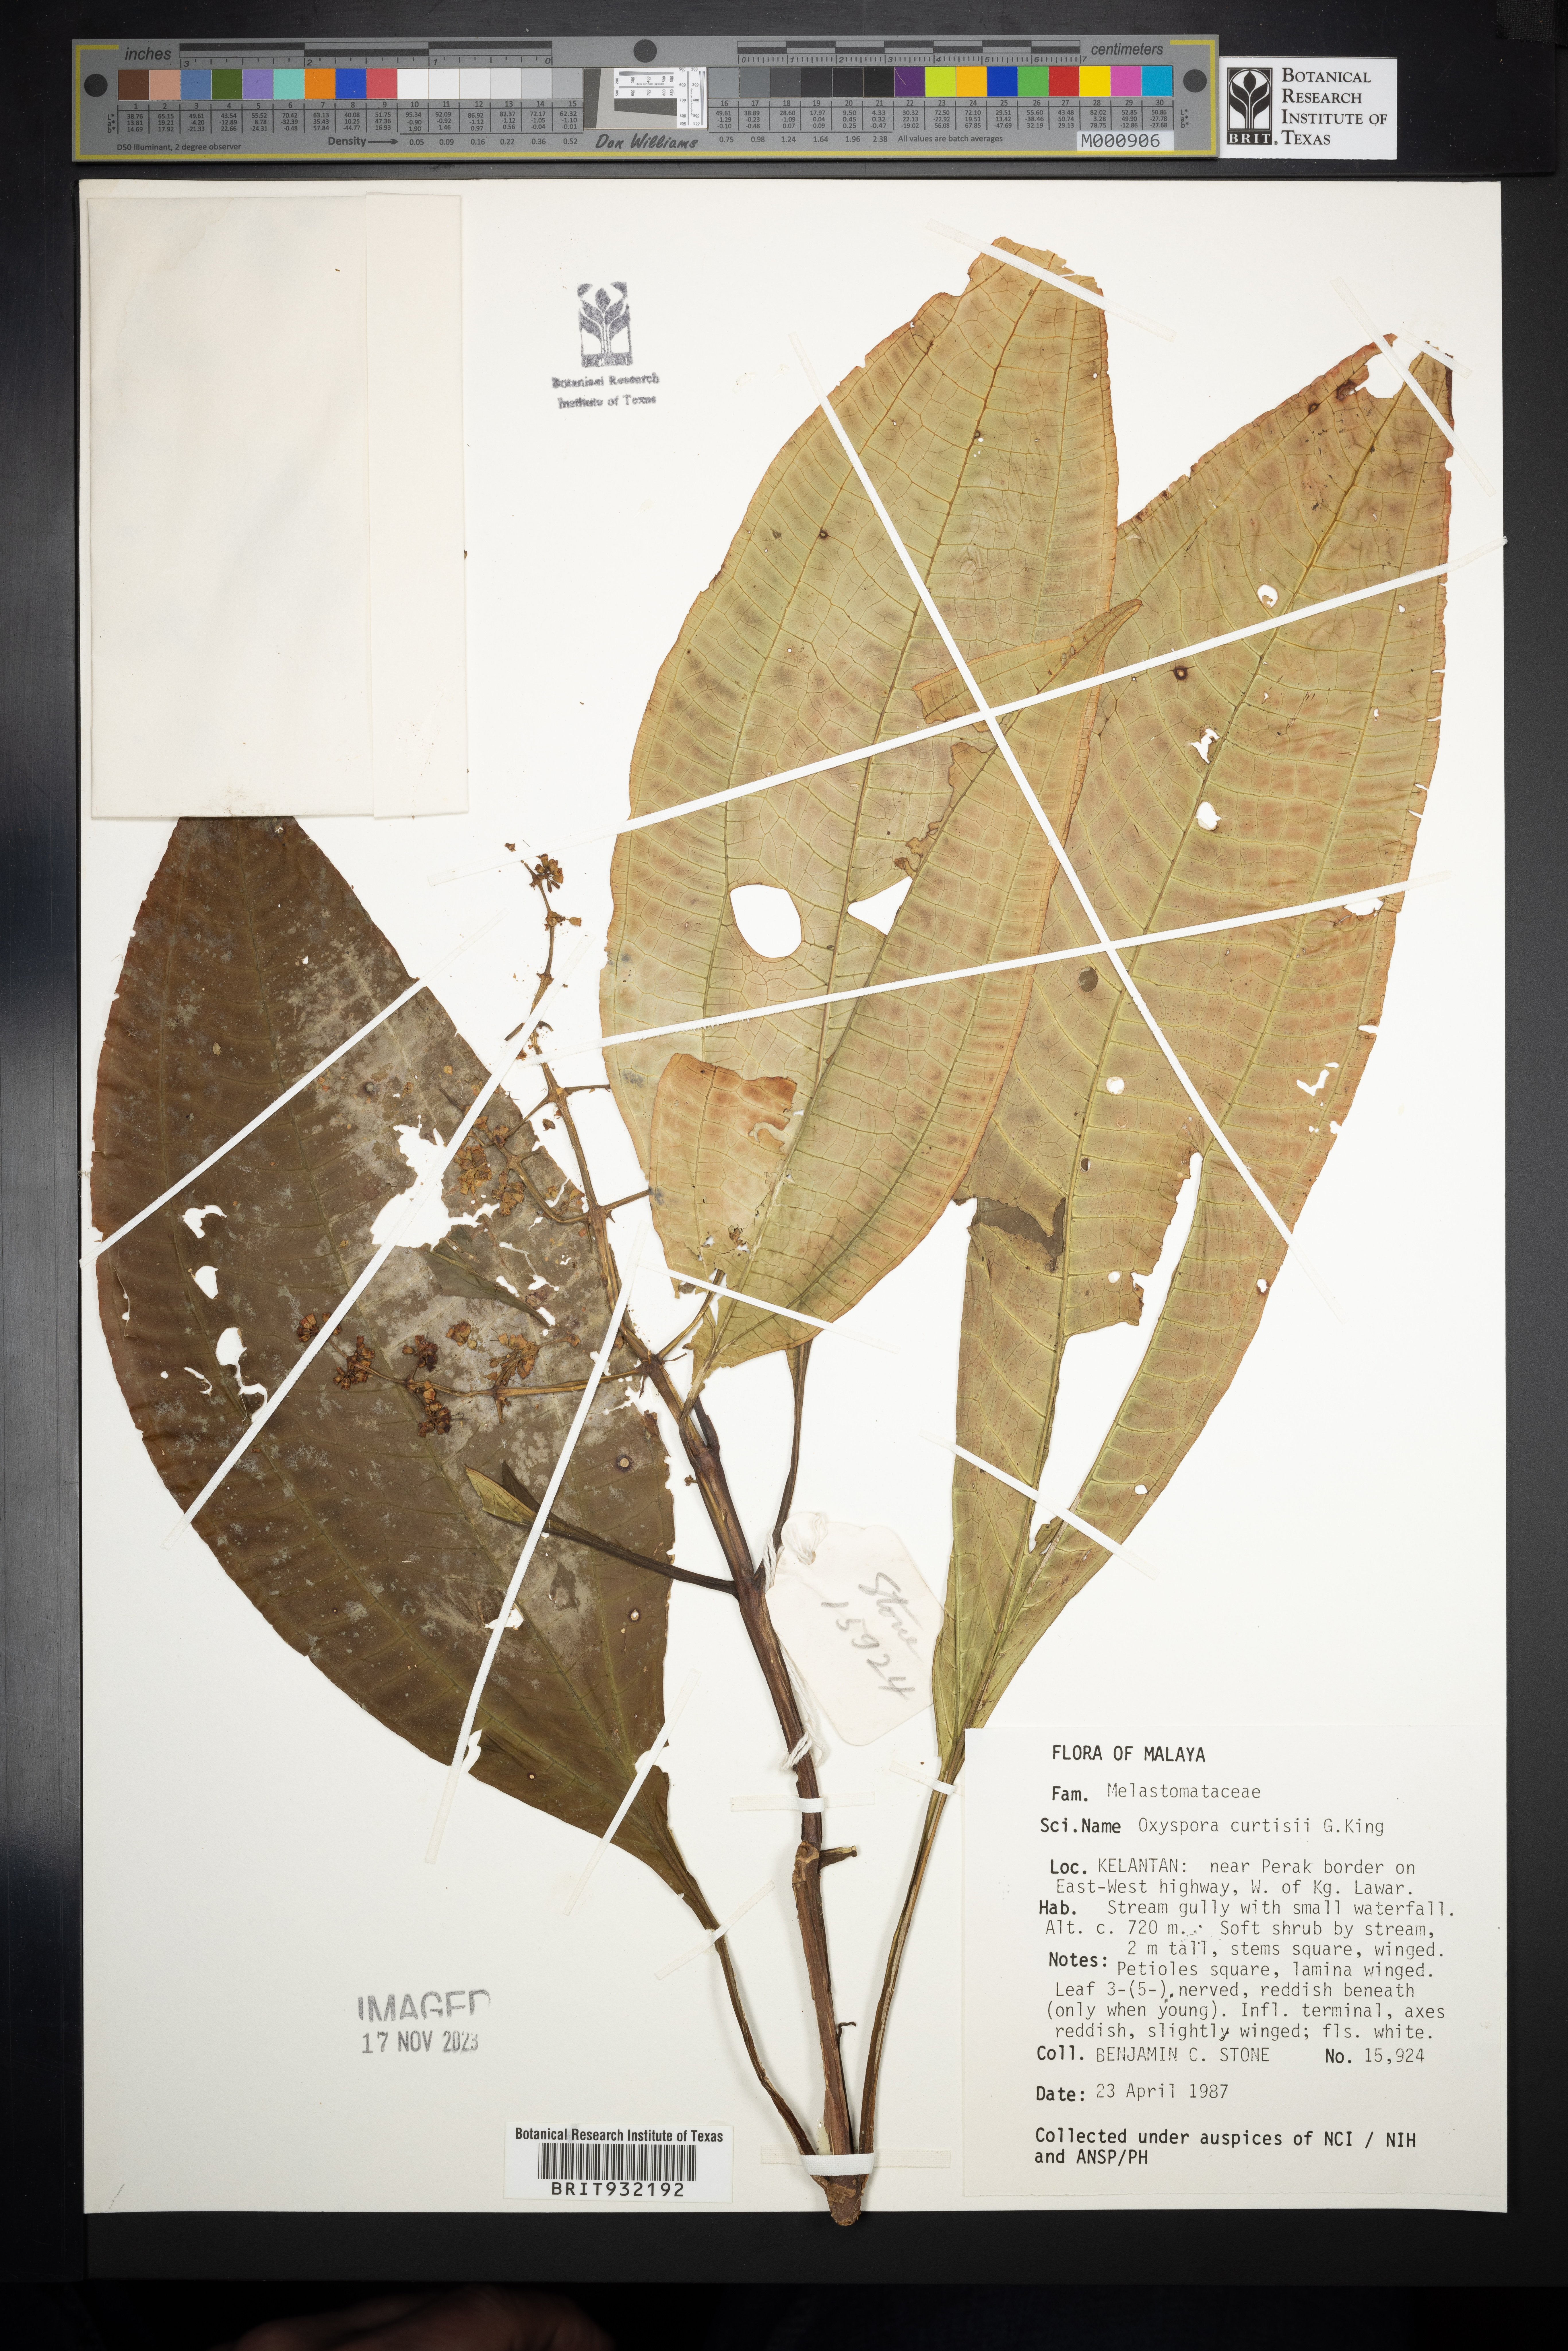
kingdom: Plantae
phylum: Tracheophyta
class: Magnoliopsida
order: Myrtales
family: Melastomataceae
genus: Oxyspora
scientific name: Oxyspora
